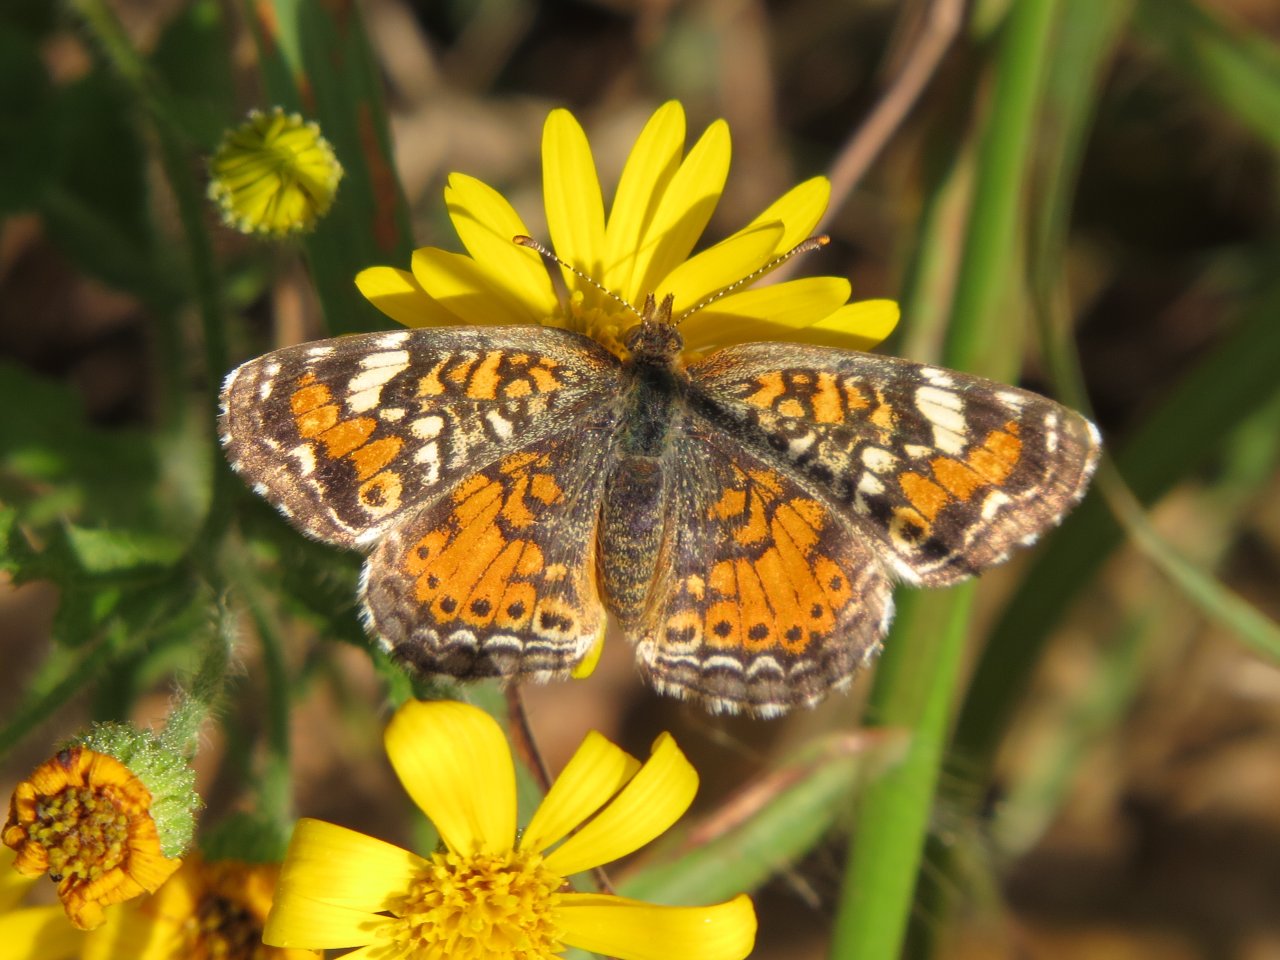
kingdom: Animalia
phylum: Arthropoda
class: Insecta
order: Lepidoptera
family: Nymphalidae
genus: Phyciodes
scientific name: Phyciodes phaon
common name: Phaon Crescent
